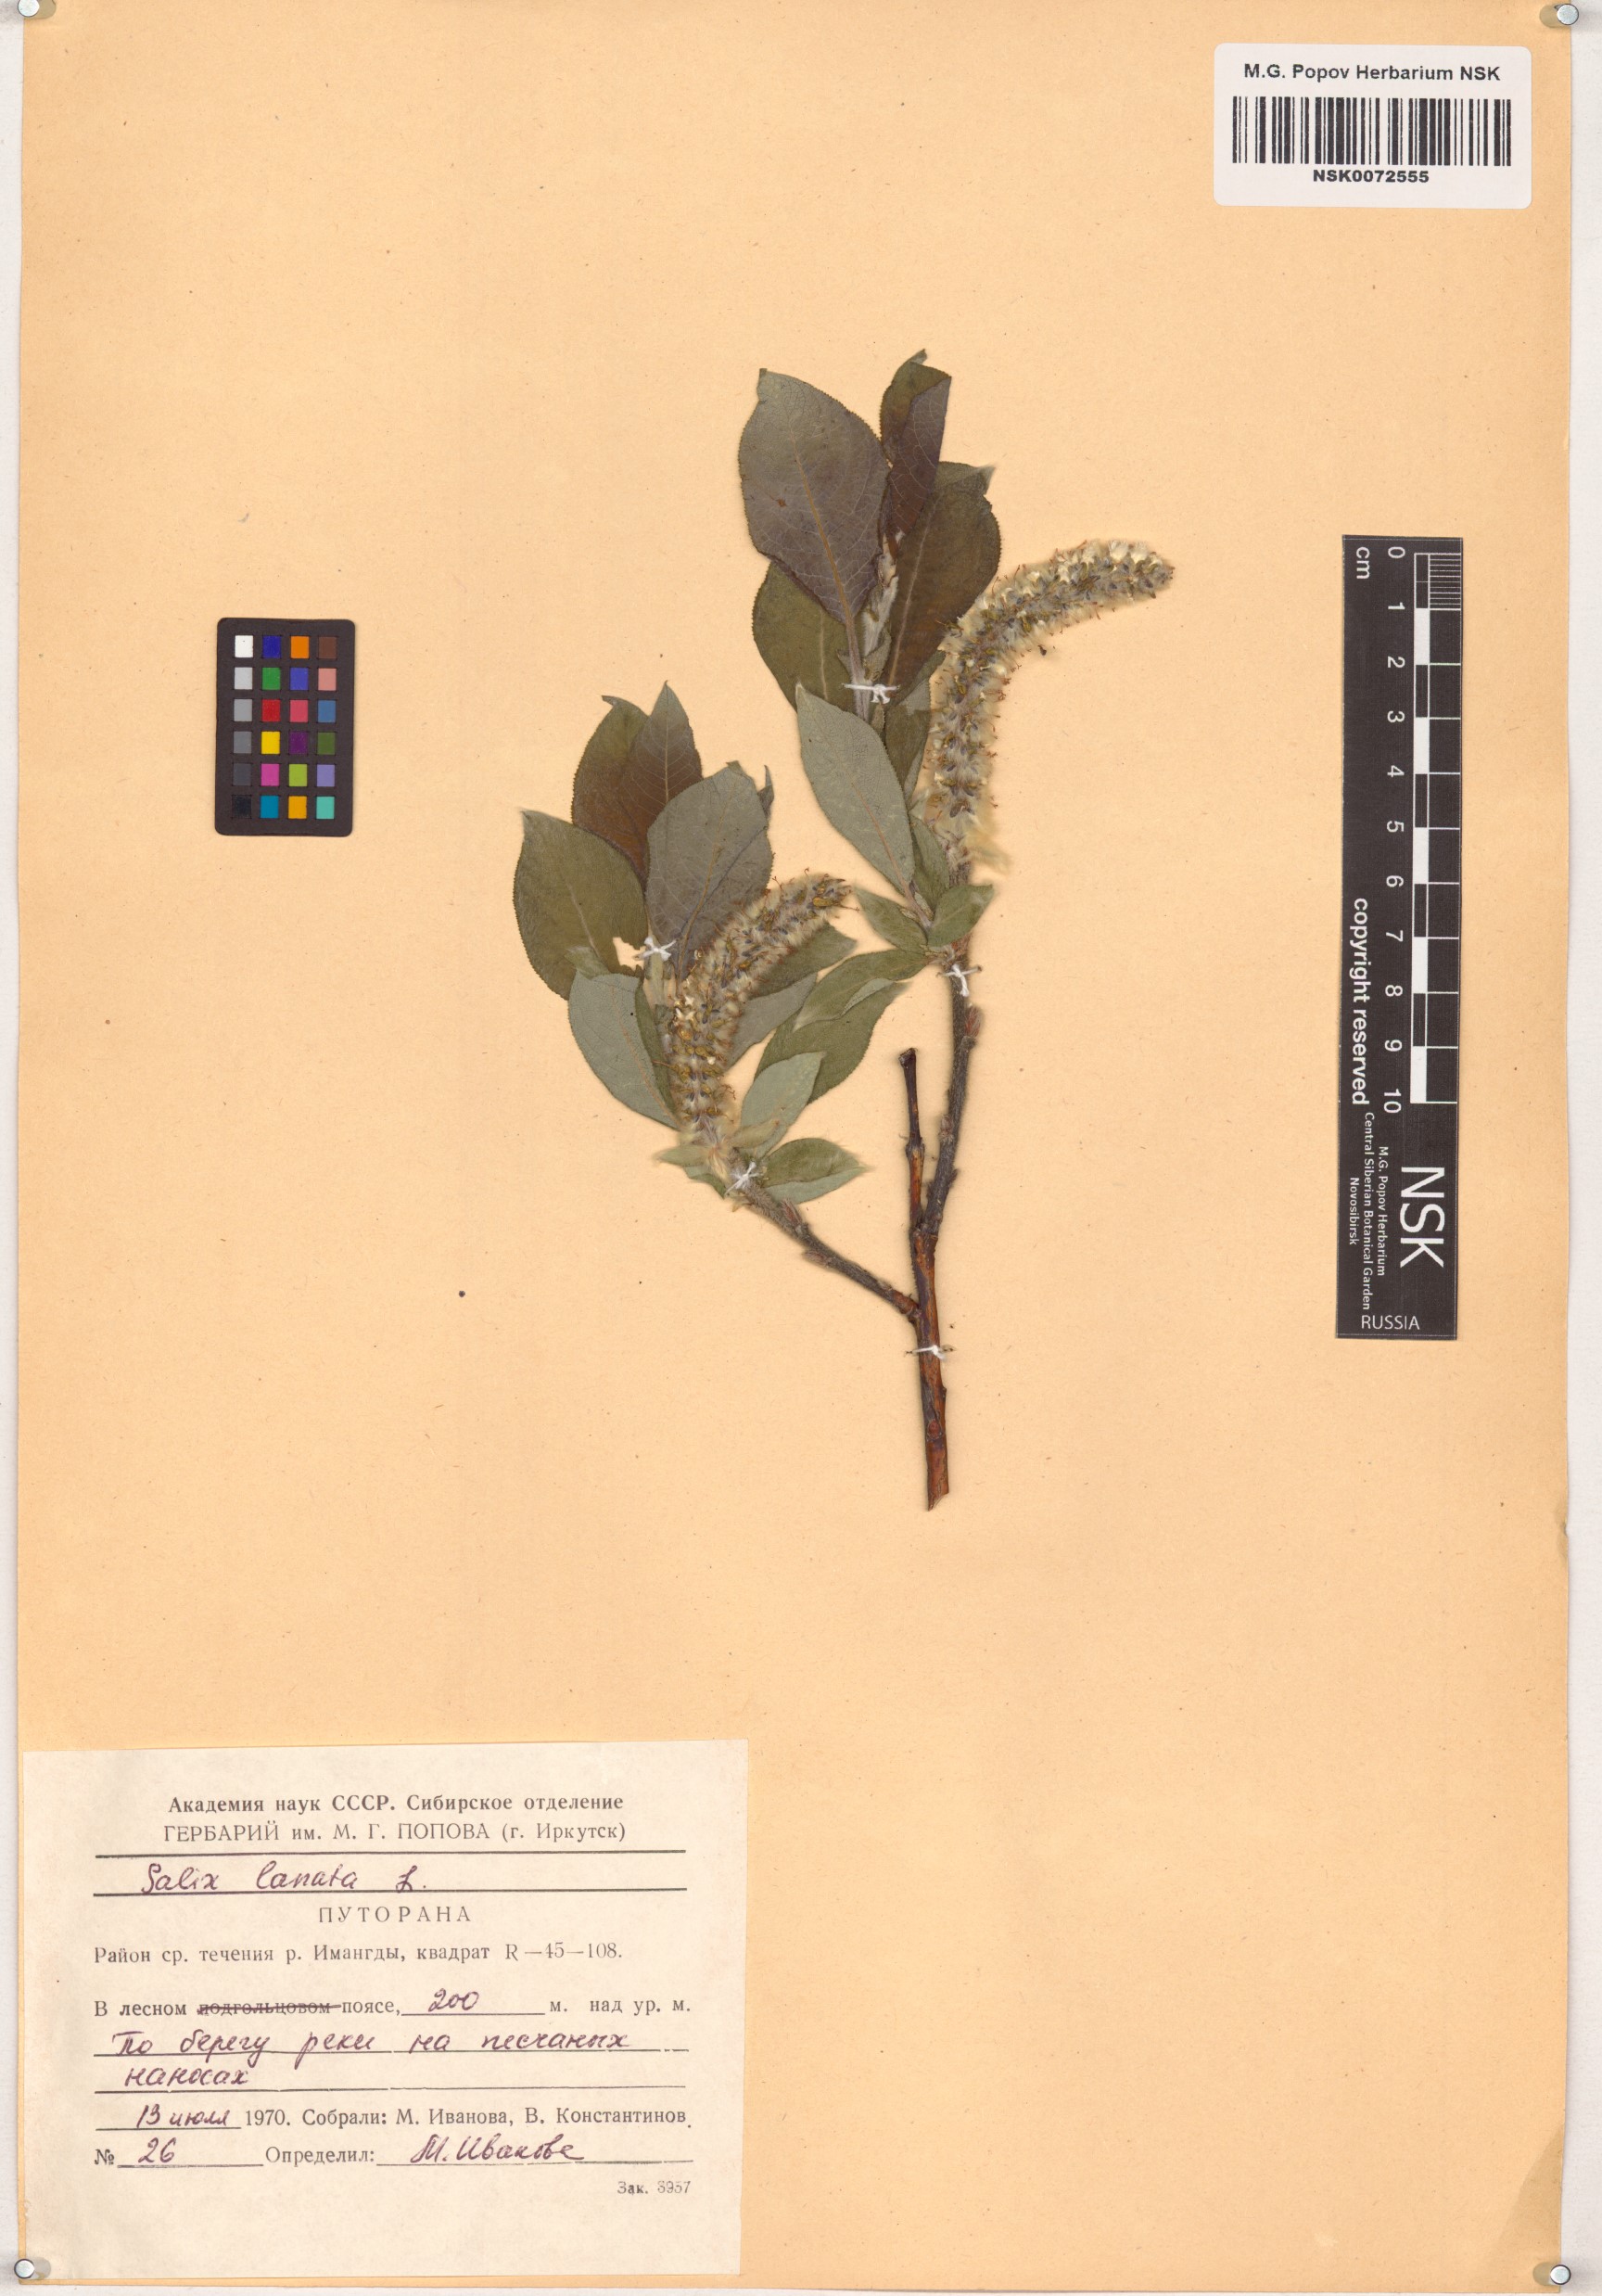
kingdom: Plantae
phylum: Tracheophyta
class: Magnoliopsida
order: Malpighiales
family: Salicaceae
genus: Salix
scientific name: Salix lanata
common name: Woolly willow
